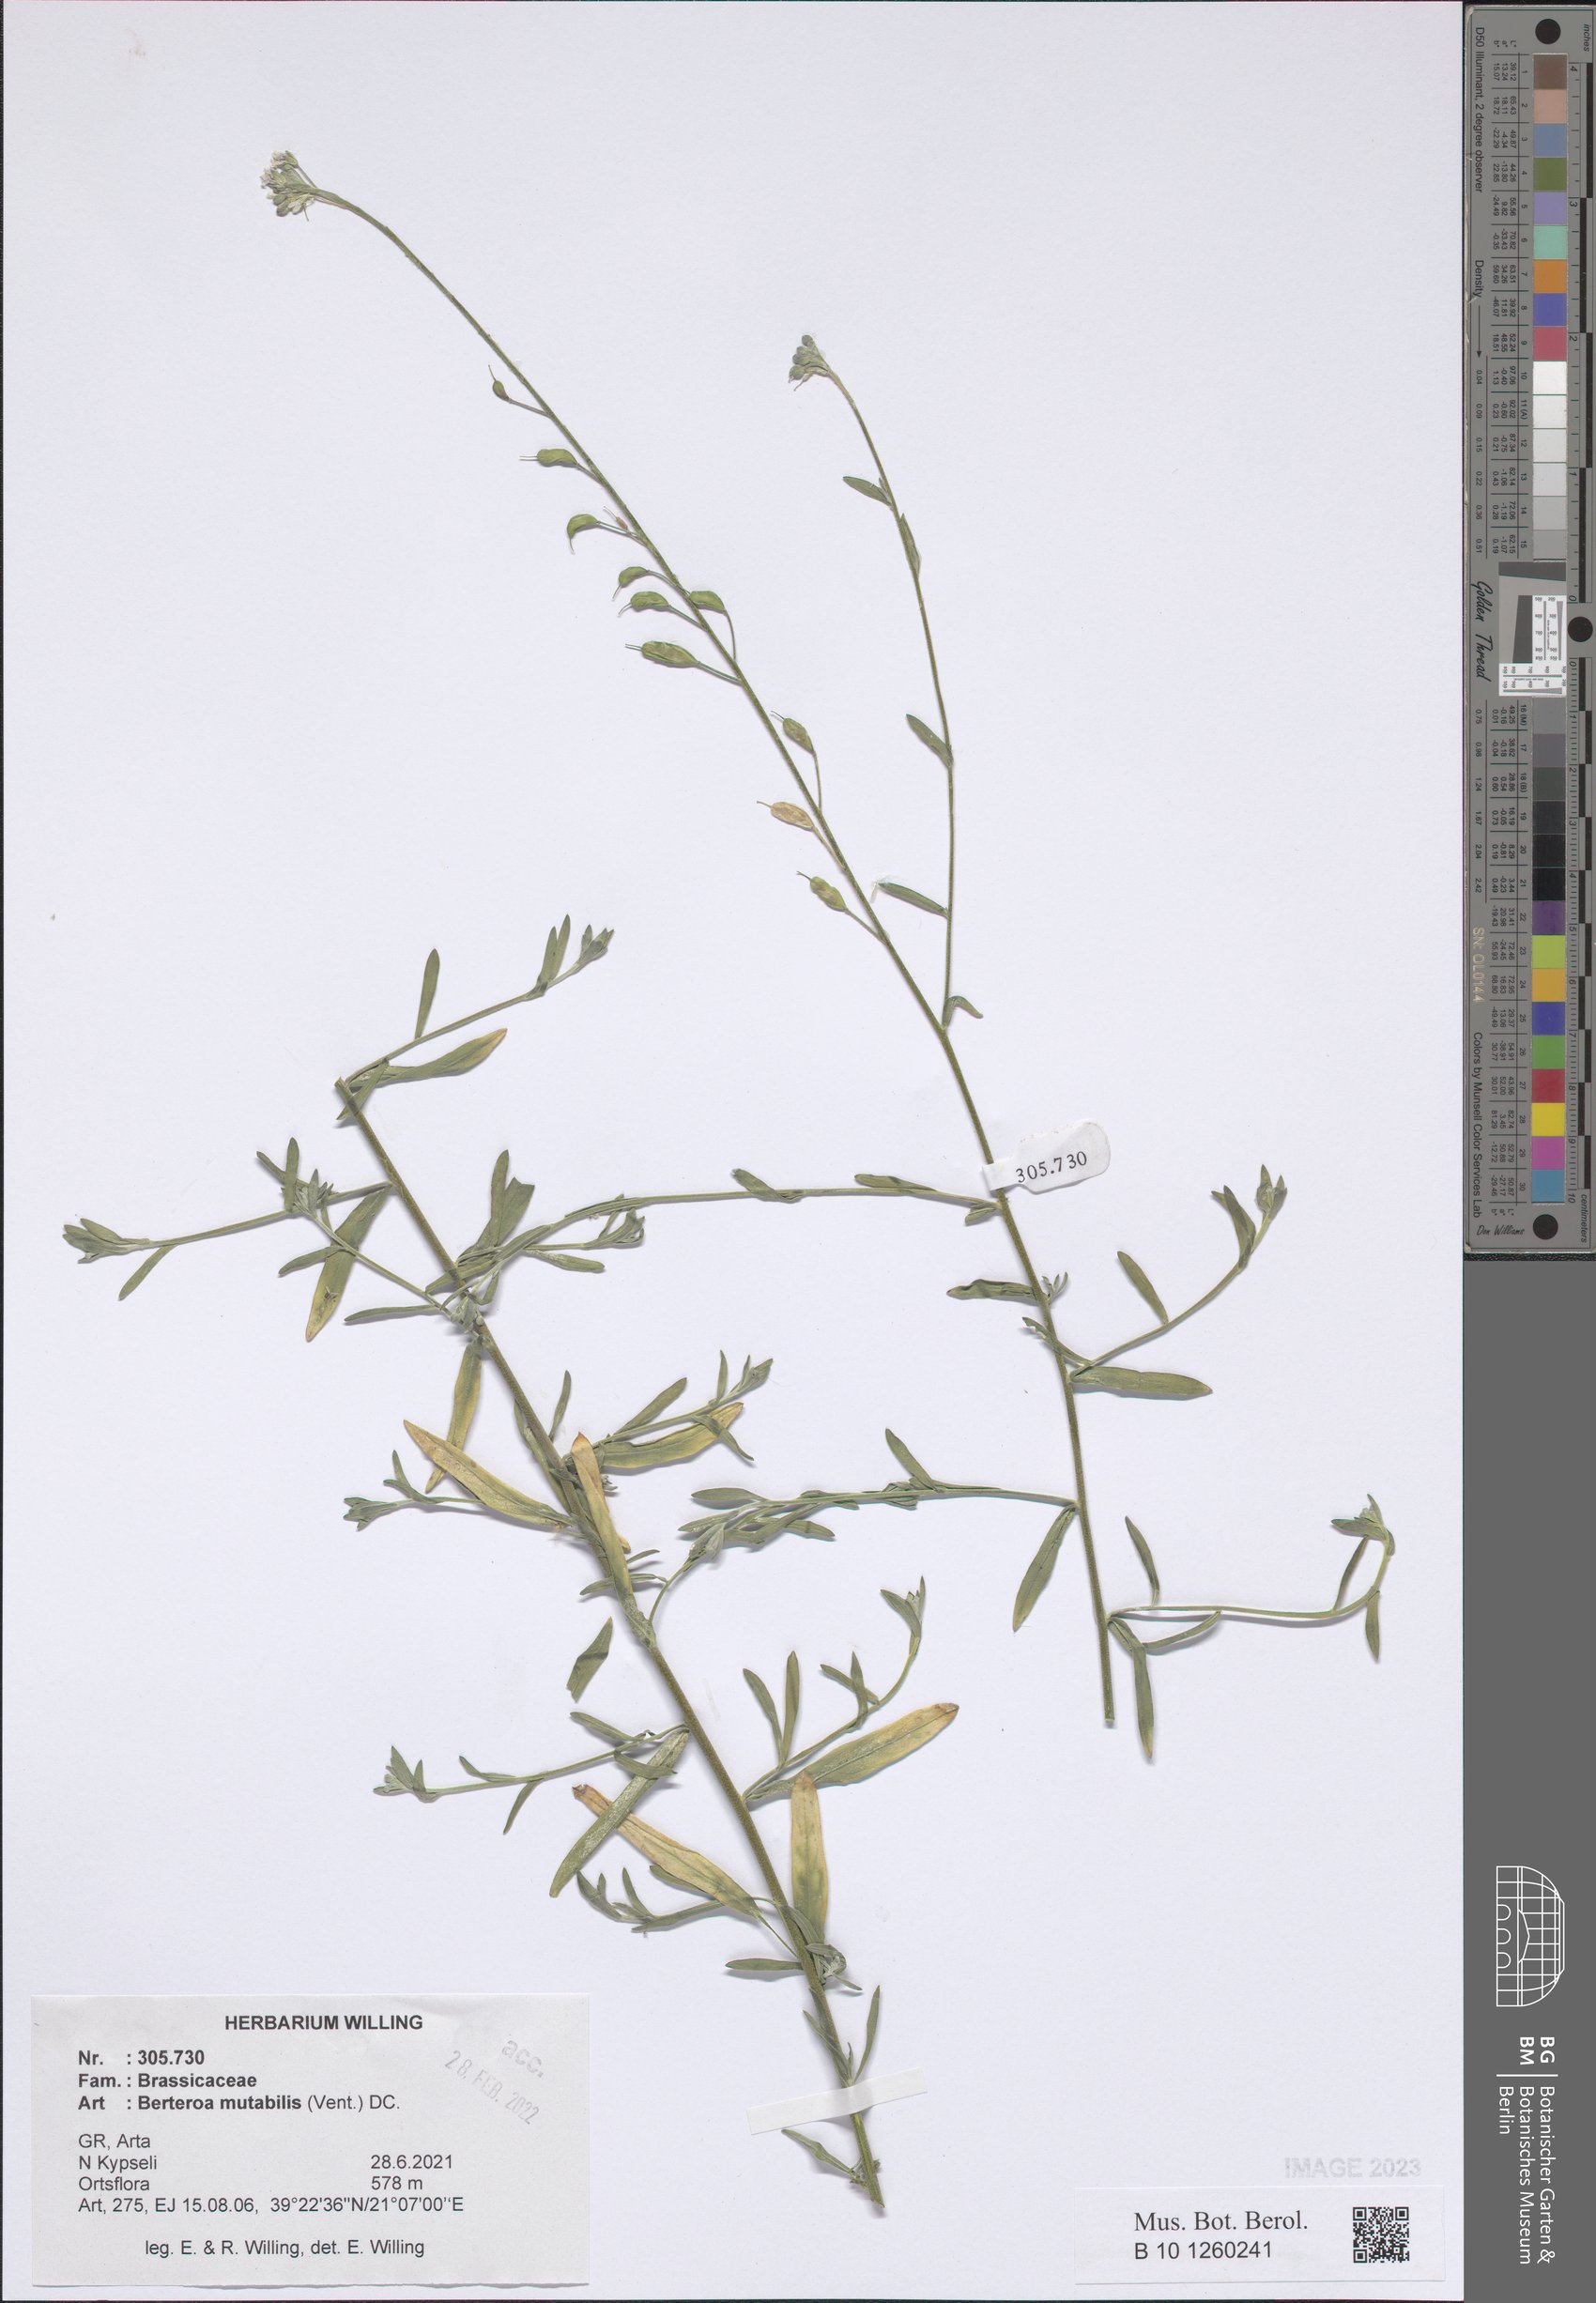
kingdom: Plantae
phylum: Tracheophyta
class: Magnoliopsida
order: Brassicales
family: Brassicaceae
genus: Berteroa
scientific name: Berteroa mutabilis
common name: Roadside false madwort
